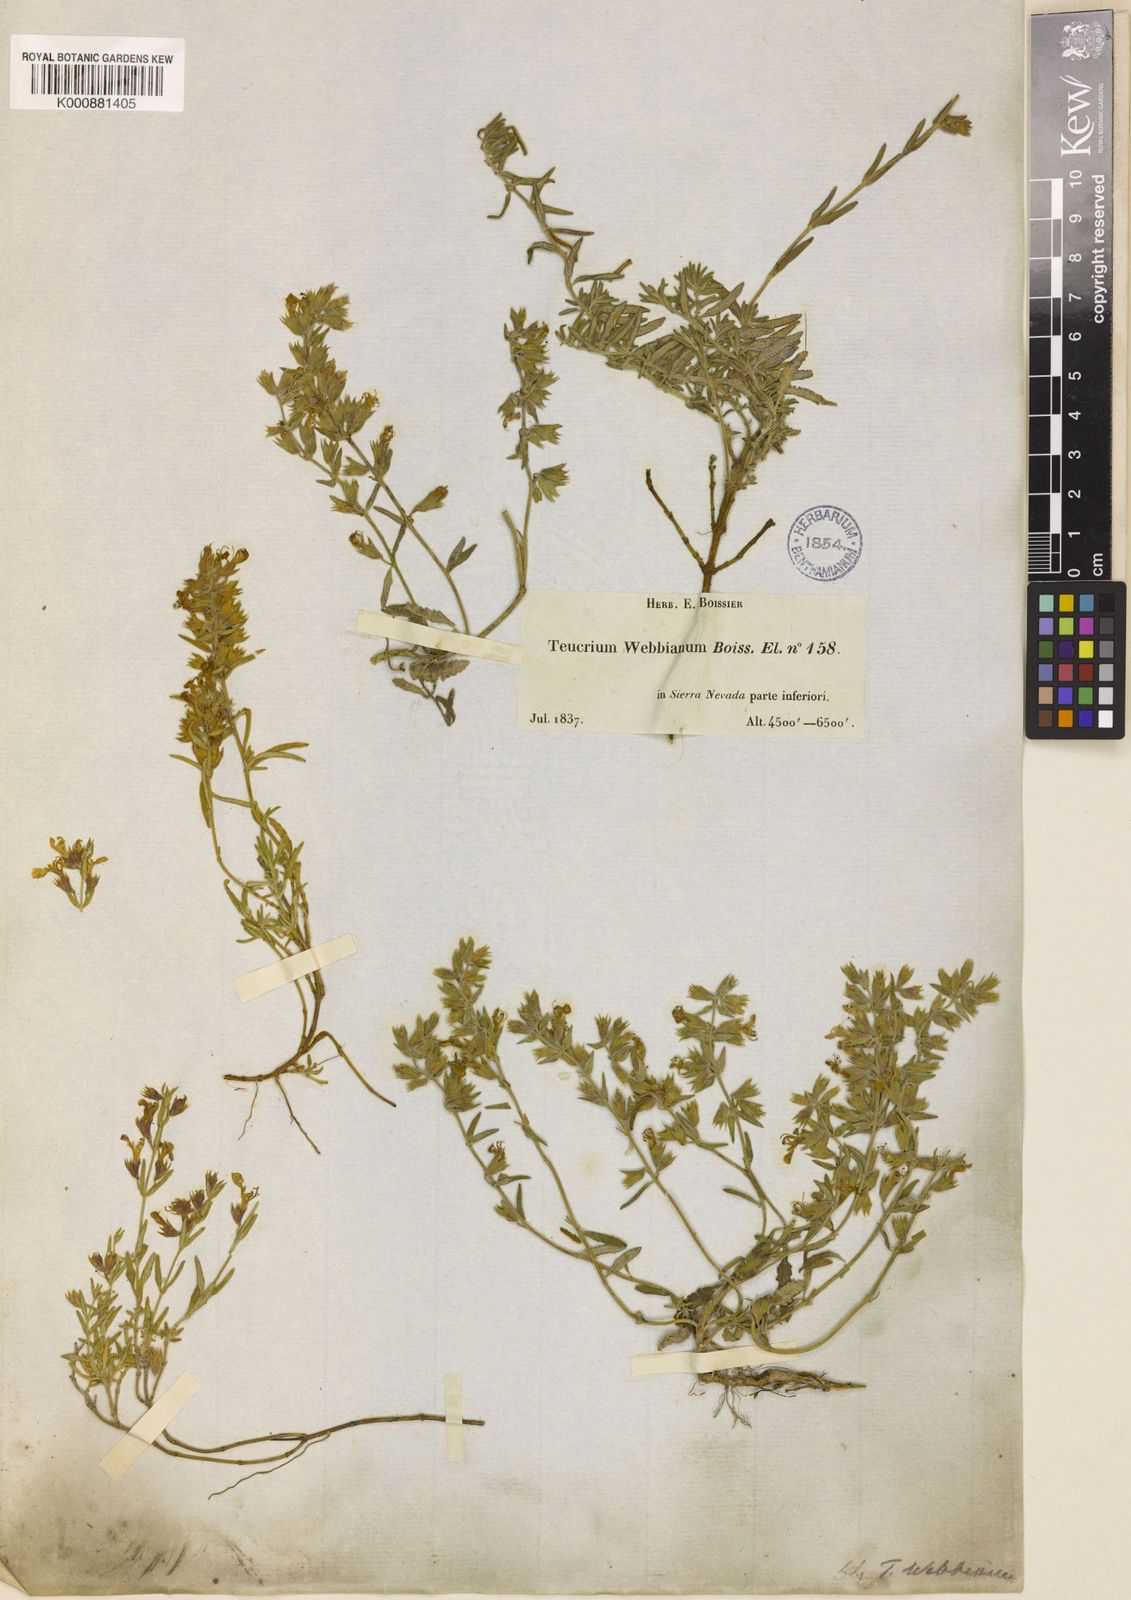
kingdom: Plantae
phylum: Tracheophyta
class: Magnoliopsida
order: Lamiales
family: Lamiaceae
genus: Teucrium
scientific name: Teucrium webbianum
